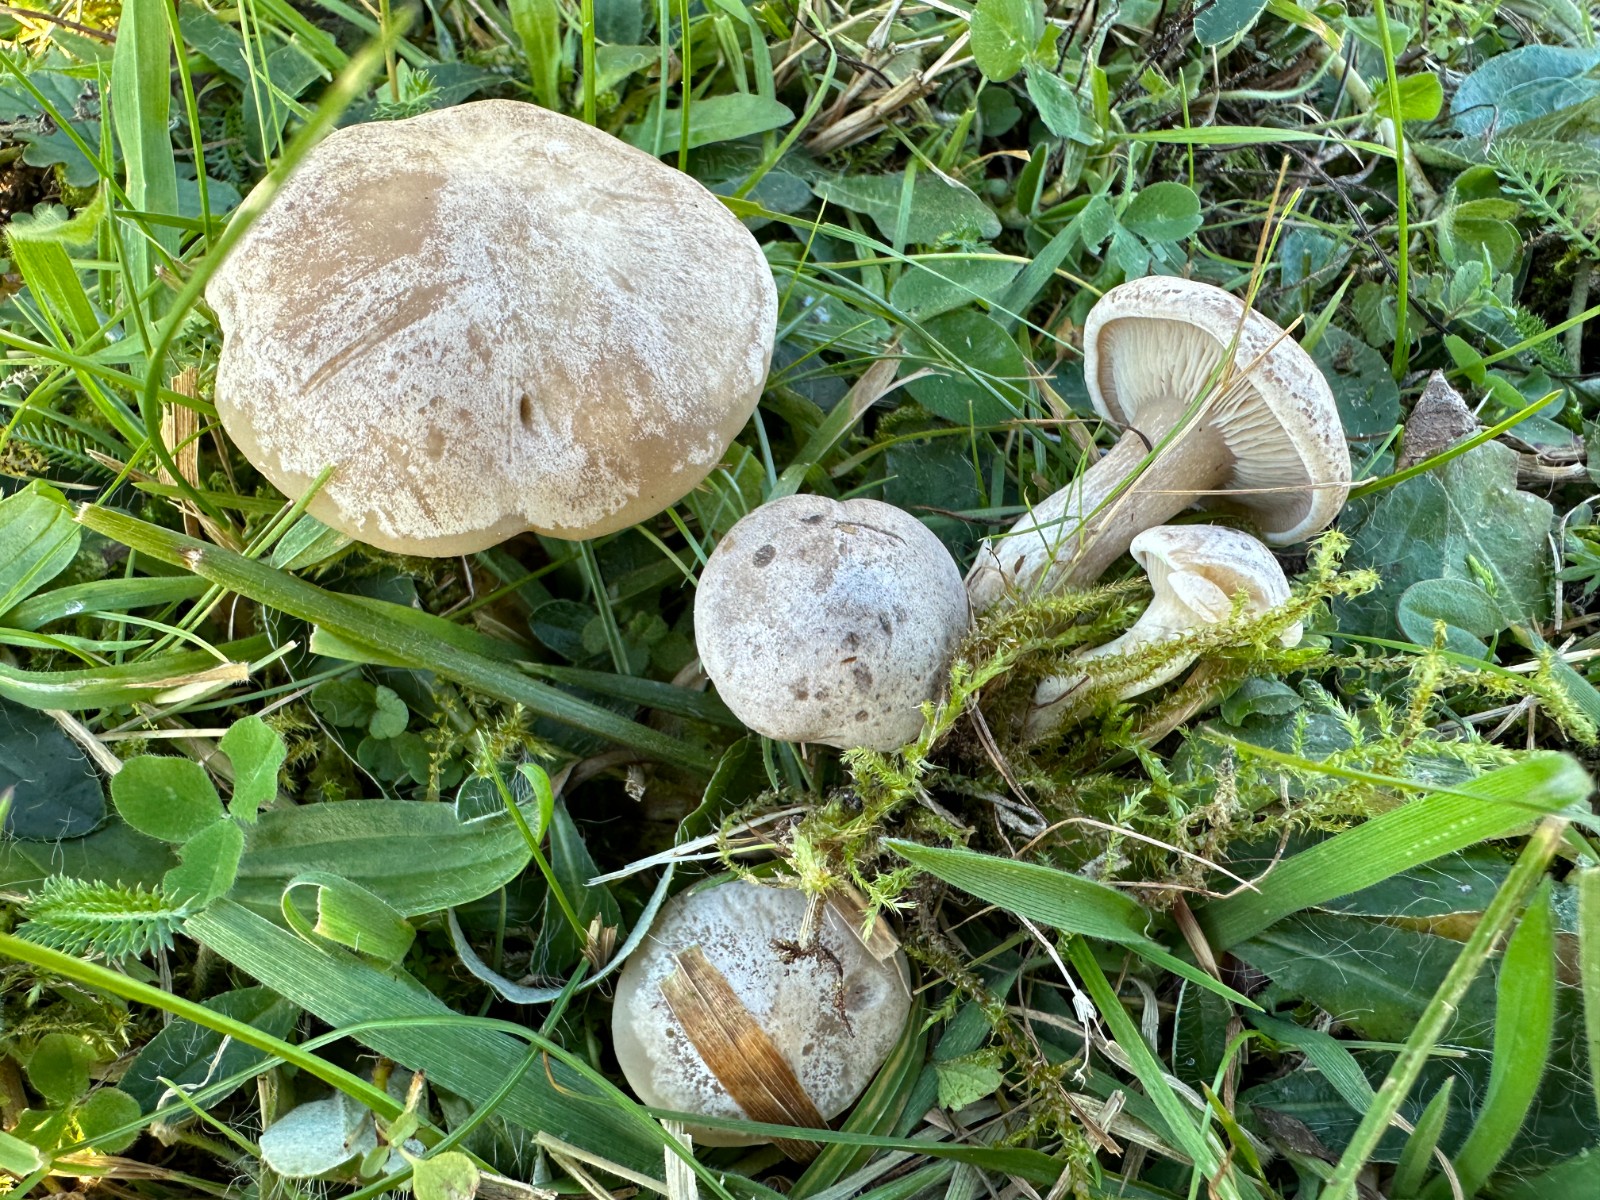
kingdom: Fungi
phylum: Basidiomycota
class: Agaricomycetes
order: Agaricales
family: Tricholomataceae
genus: Lepista
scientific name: Lepista panaeolus
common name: marmoreret hekseringshat
